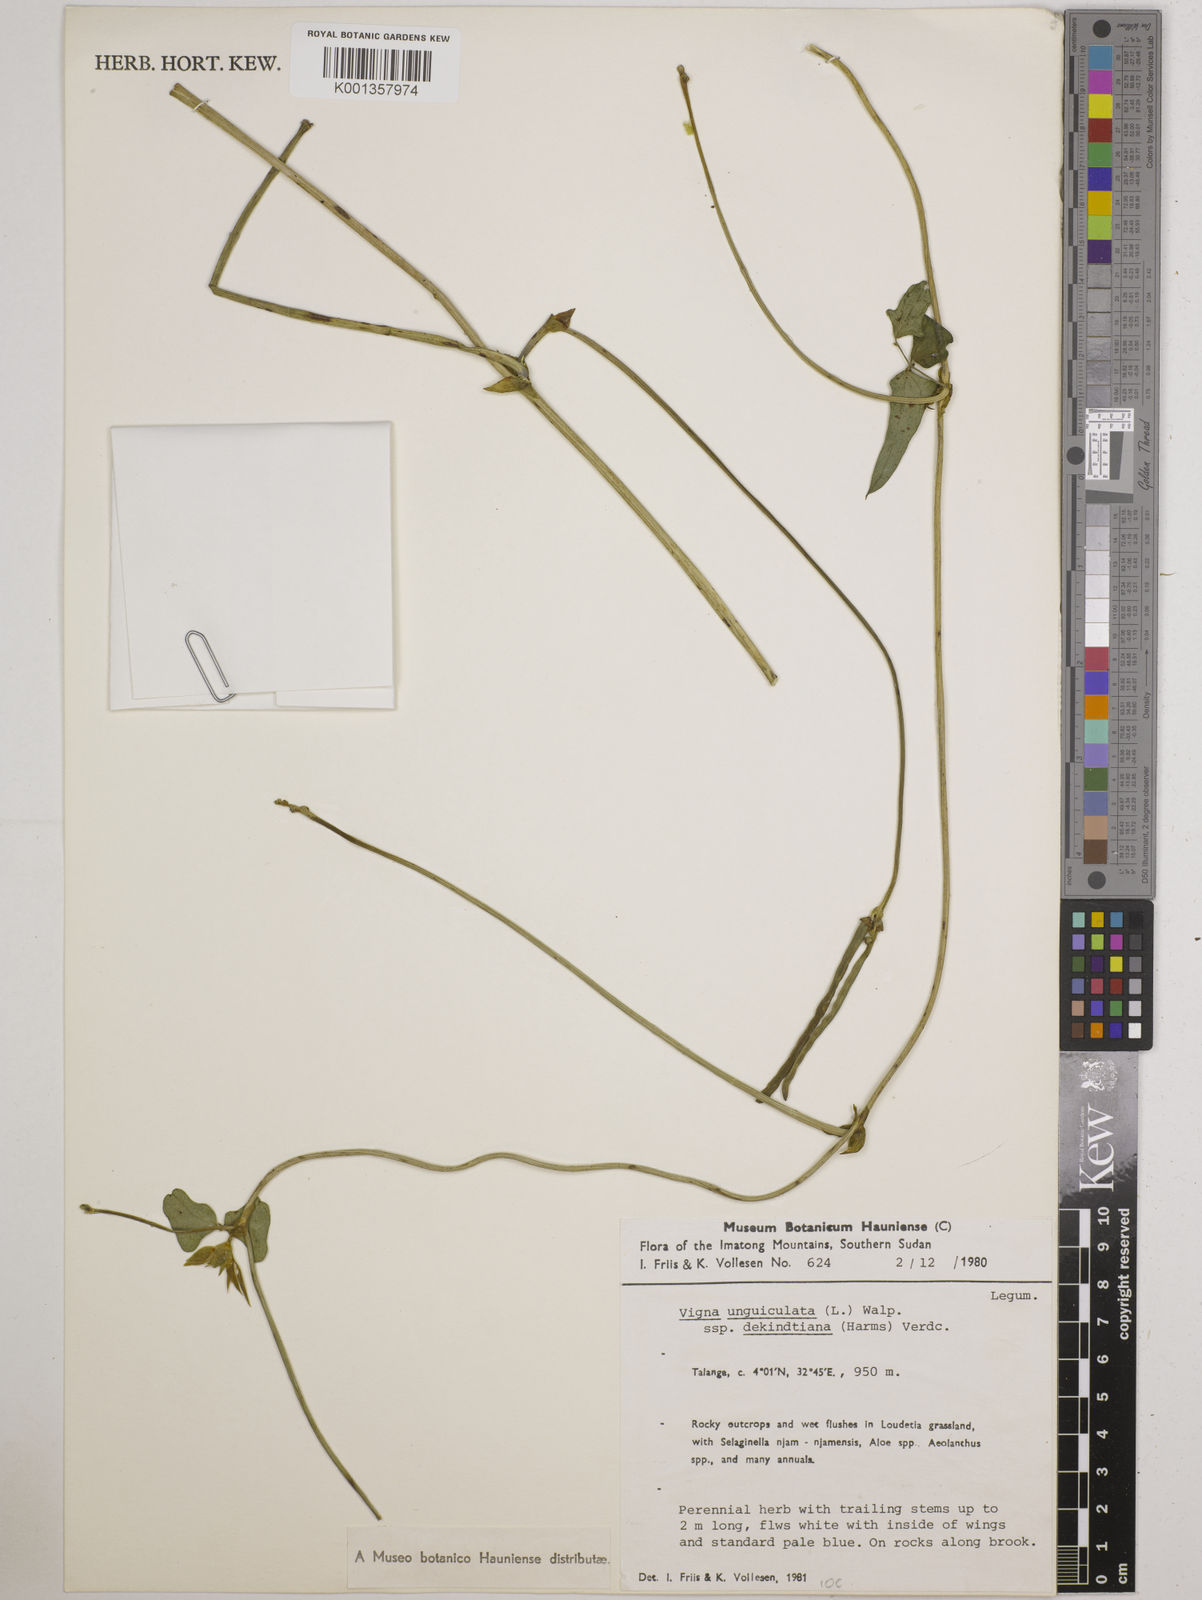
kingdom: Plantae
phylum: Tracheophyta
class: Magnoliopsida
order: Fabales
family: Fabaceae
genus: Vigna
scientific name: Vigna
